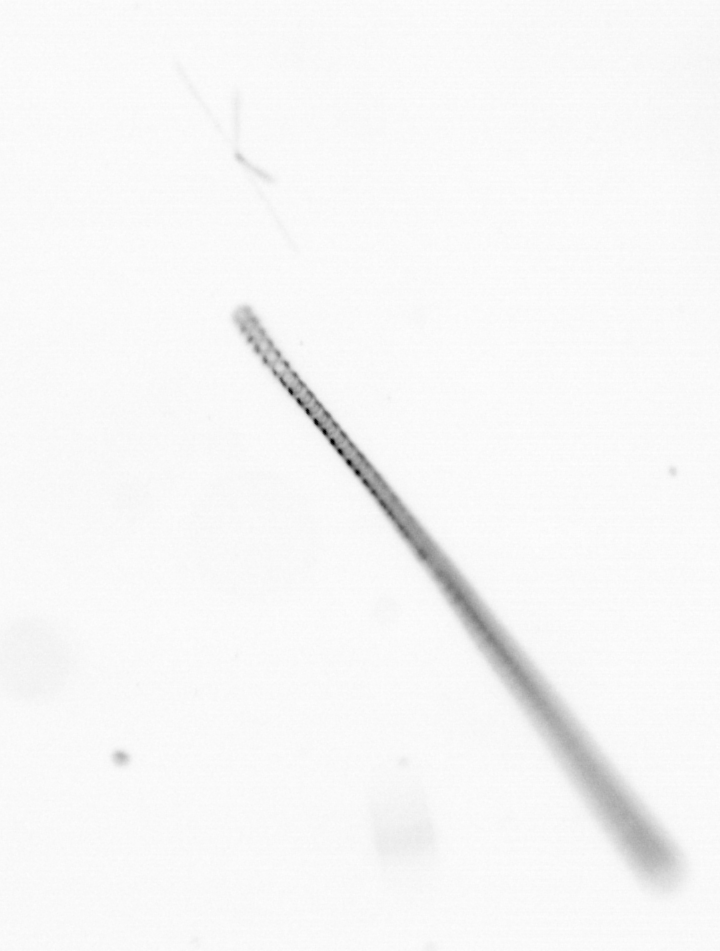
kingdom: Chromista
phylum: Ochrophyta
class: Bacillariophyceae
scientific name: Bacillariophyceae
